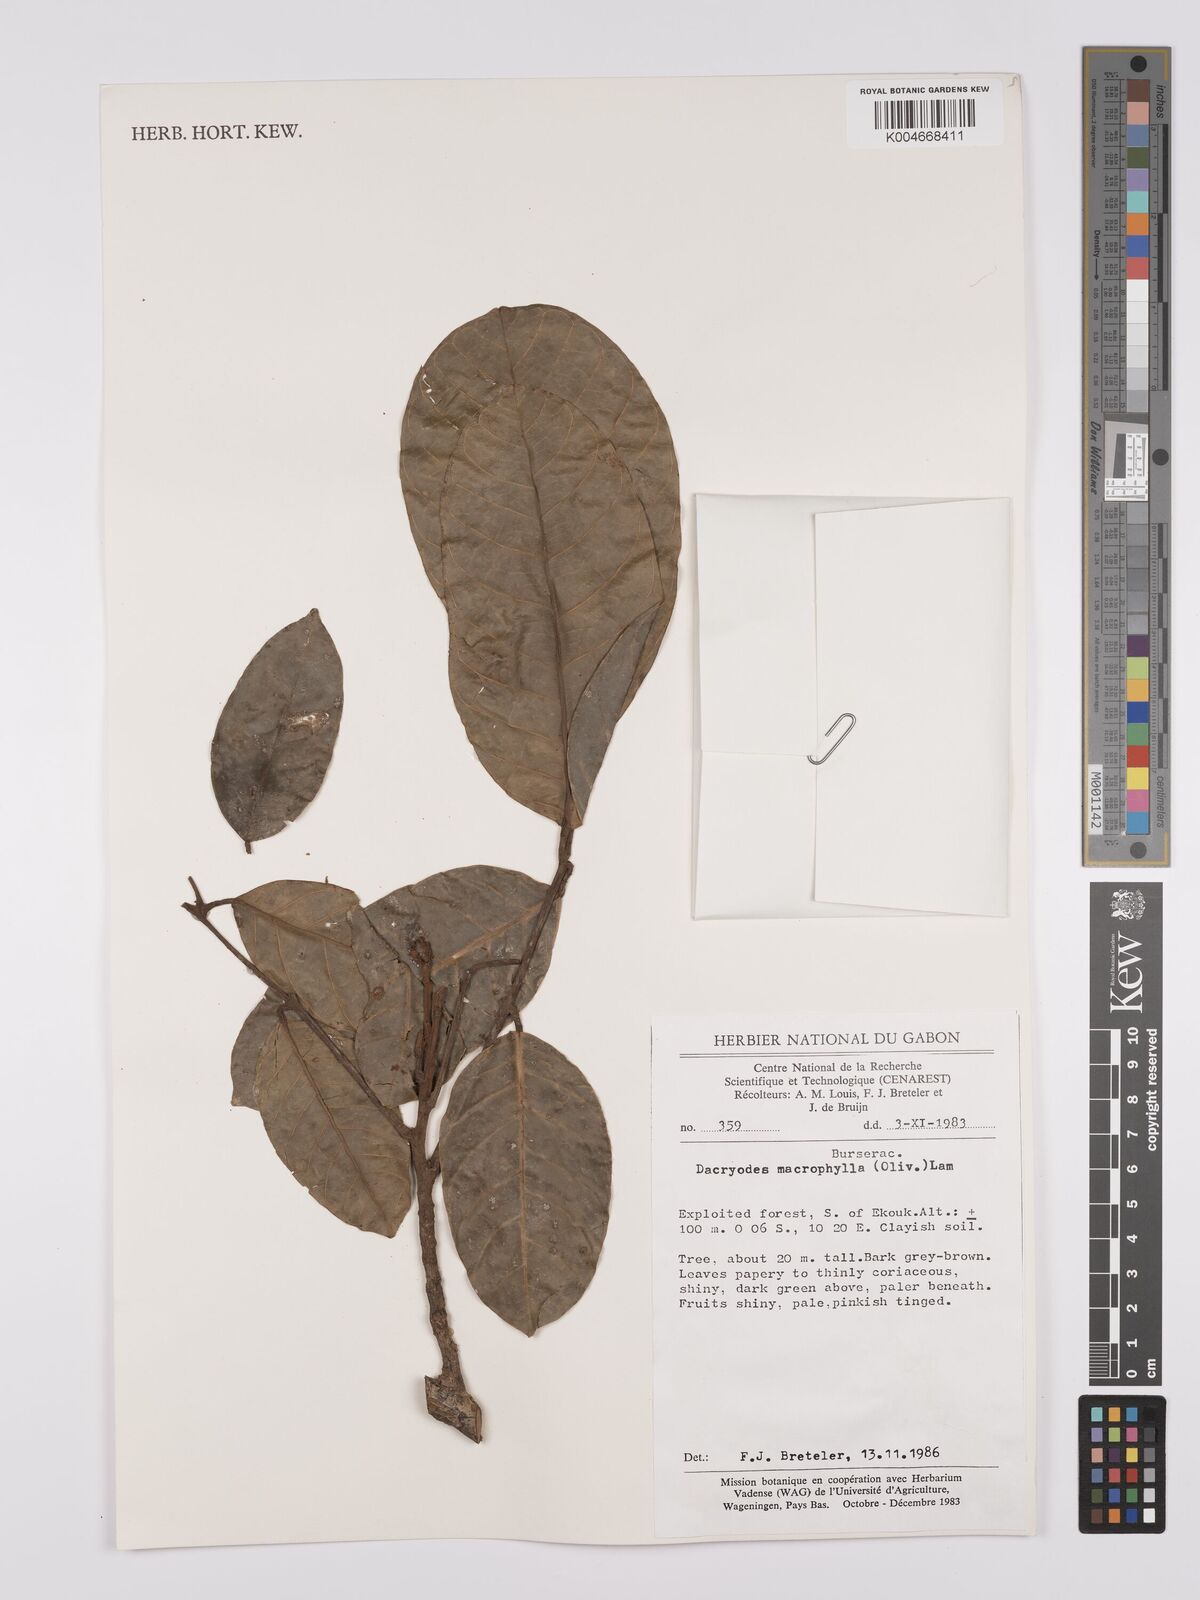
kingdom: Plantae
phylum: Tracheophyta
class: Magnoliopsida
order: Sapindales
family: Burseraceae
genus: Pachylobus
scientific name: Pachylobus macrophyllus
